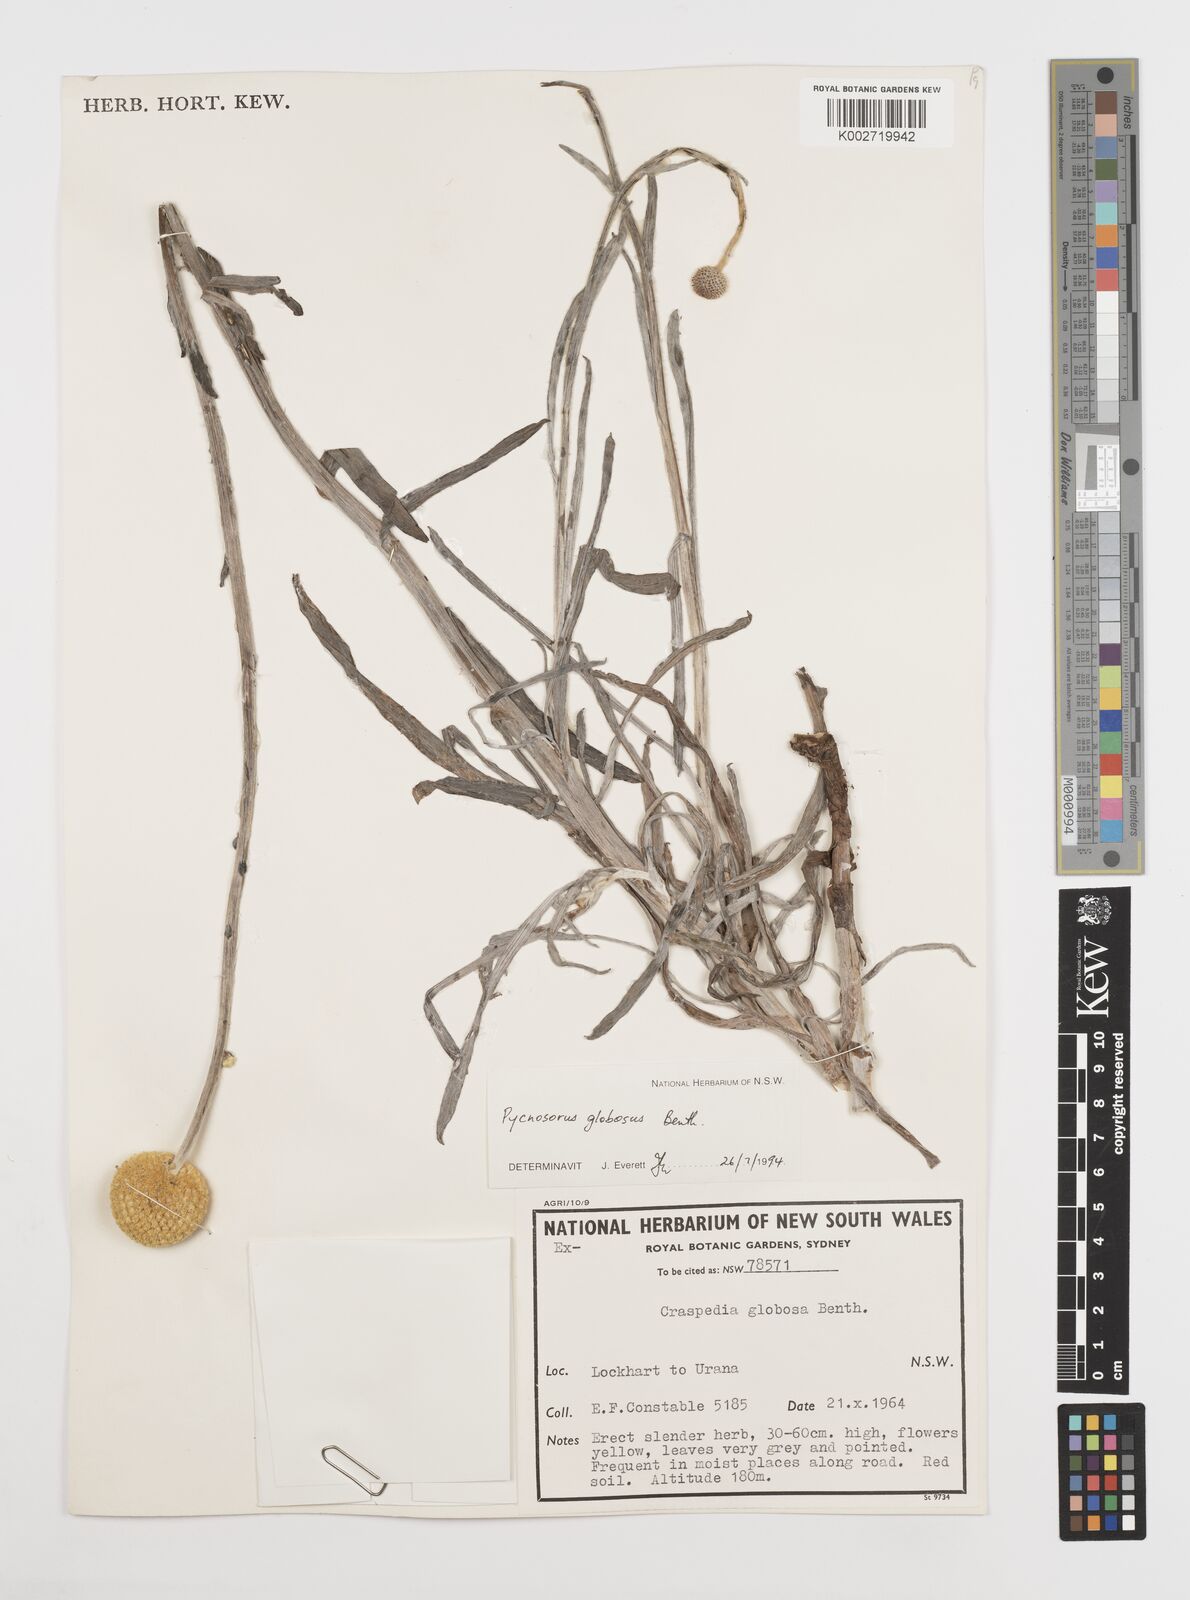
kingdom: Plantae
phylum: Tracheophyta
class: Magnoliopsida
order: Asterales
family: Asteraceae
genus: Pycnosorus
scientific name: Pycnosorus globosus
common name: Drumsticks
